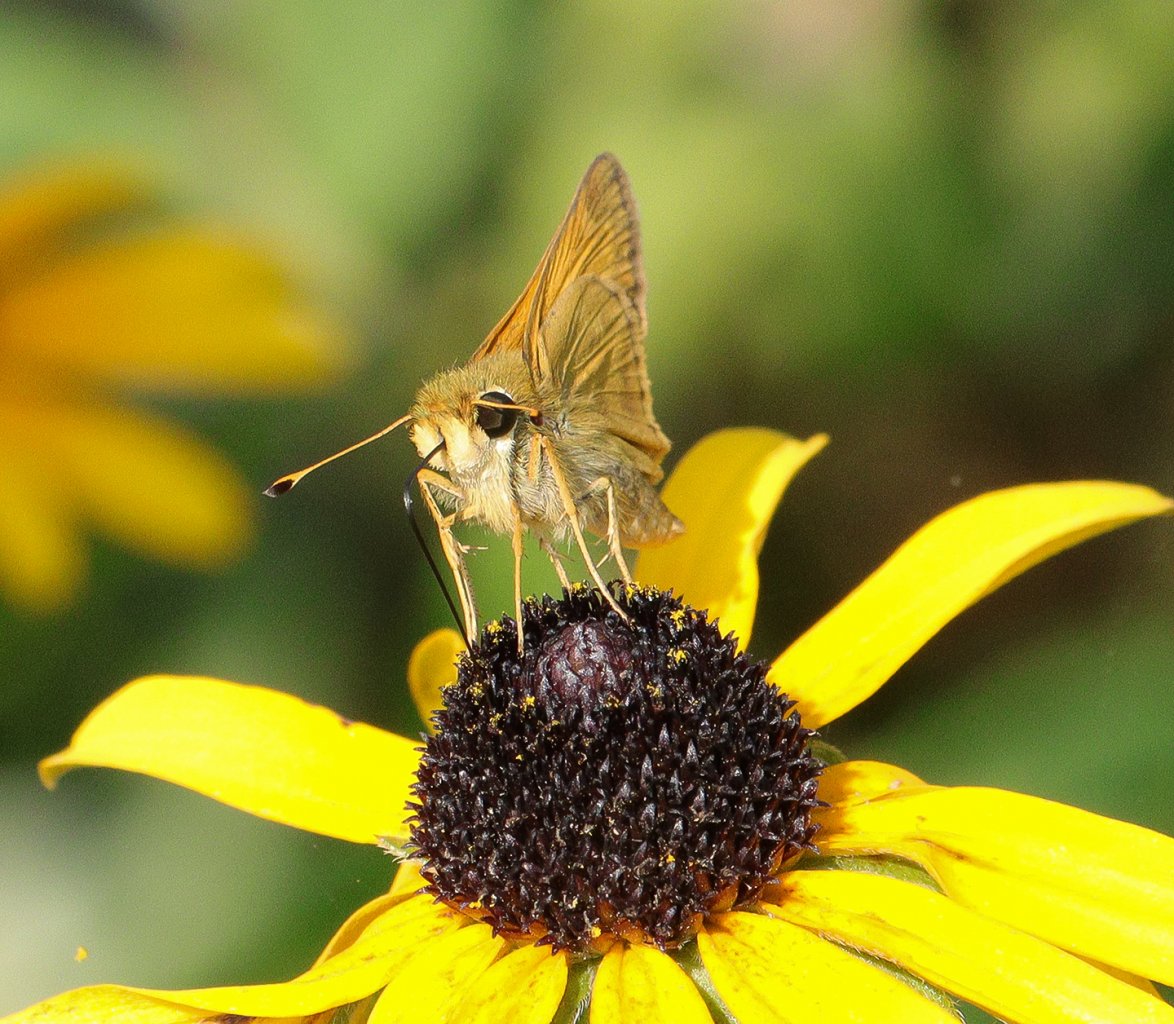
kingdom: Animalia
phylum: Arthropoda
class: Insecta
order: Lepidoptera
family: Hesperiidae
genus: Euphyes
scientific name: Euphyes dion
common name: Dion Skipper
